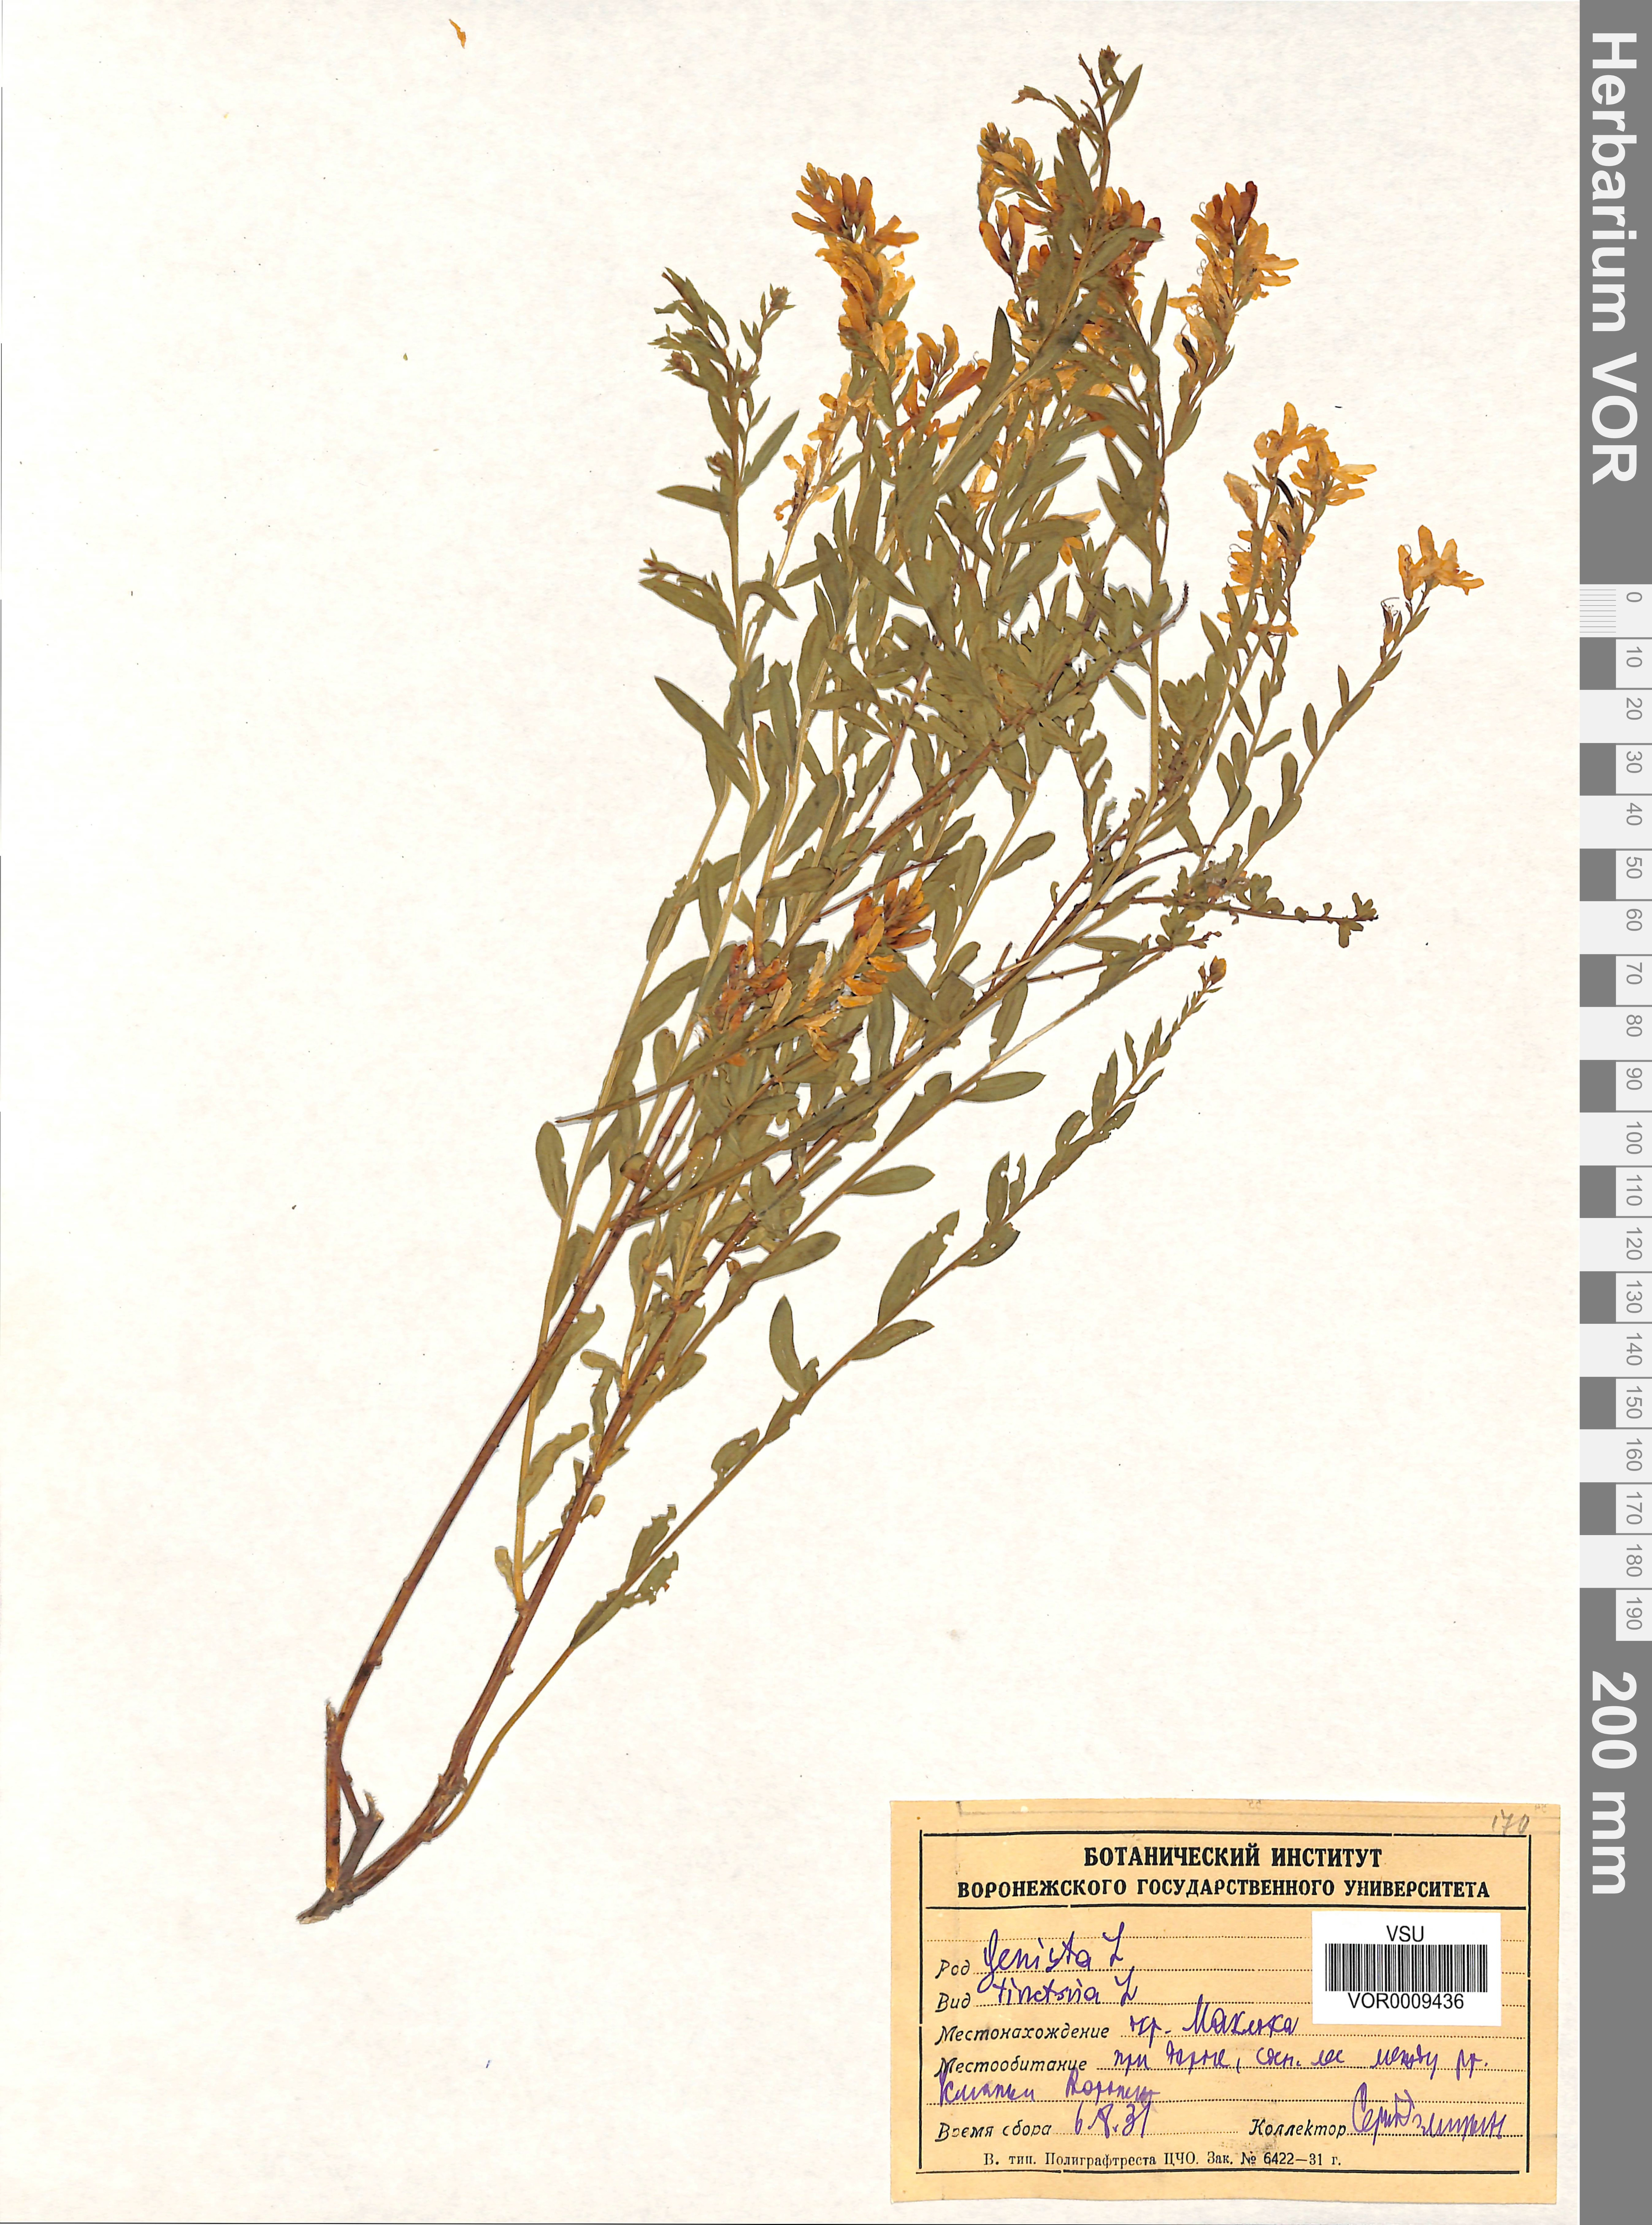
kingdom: Plantae
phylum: Tracheophyta
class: Magnoliopsida
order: Fabales
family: Fabaceae
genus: Genista
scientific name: Genista tinctoria
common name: Dyer's greenweed
